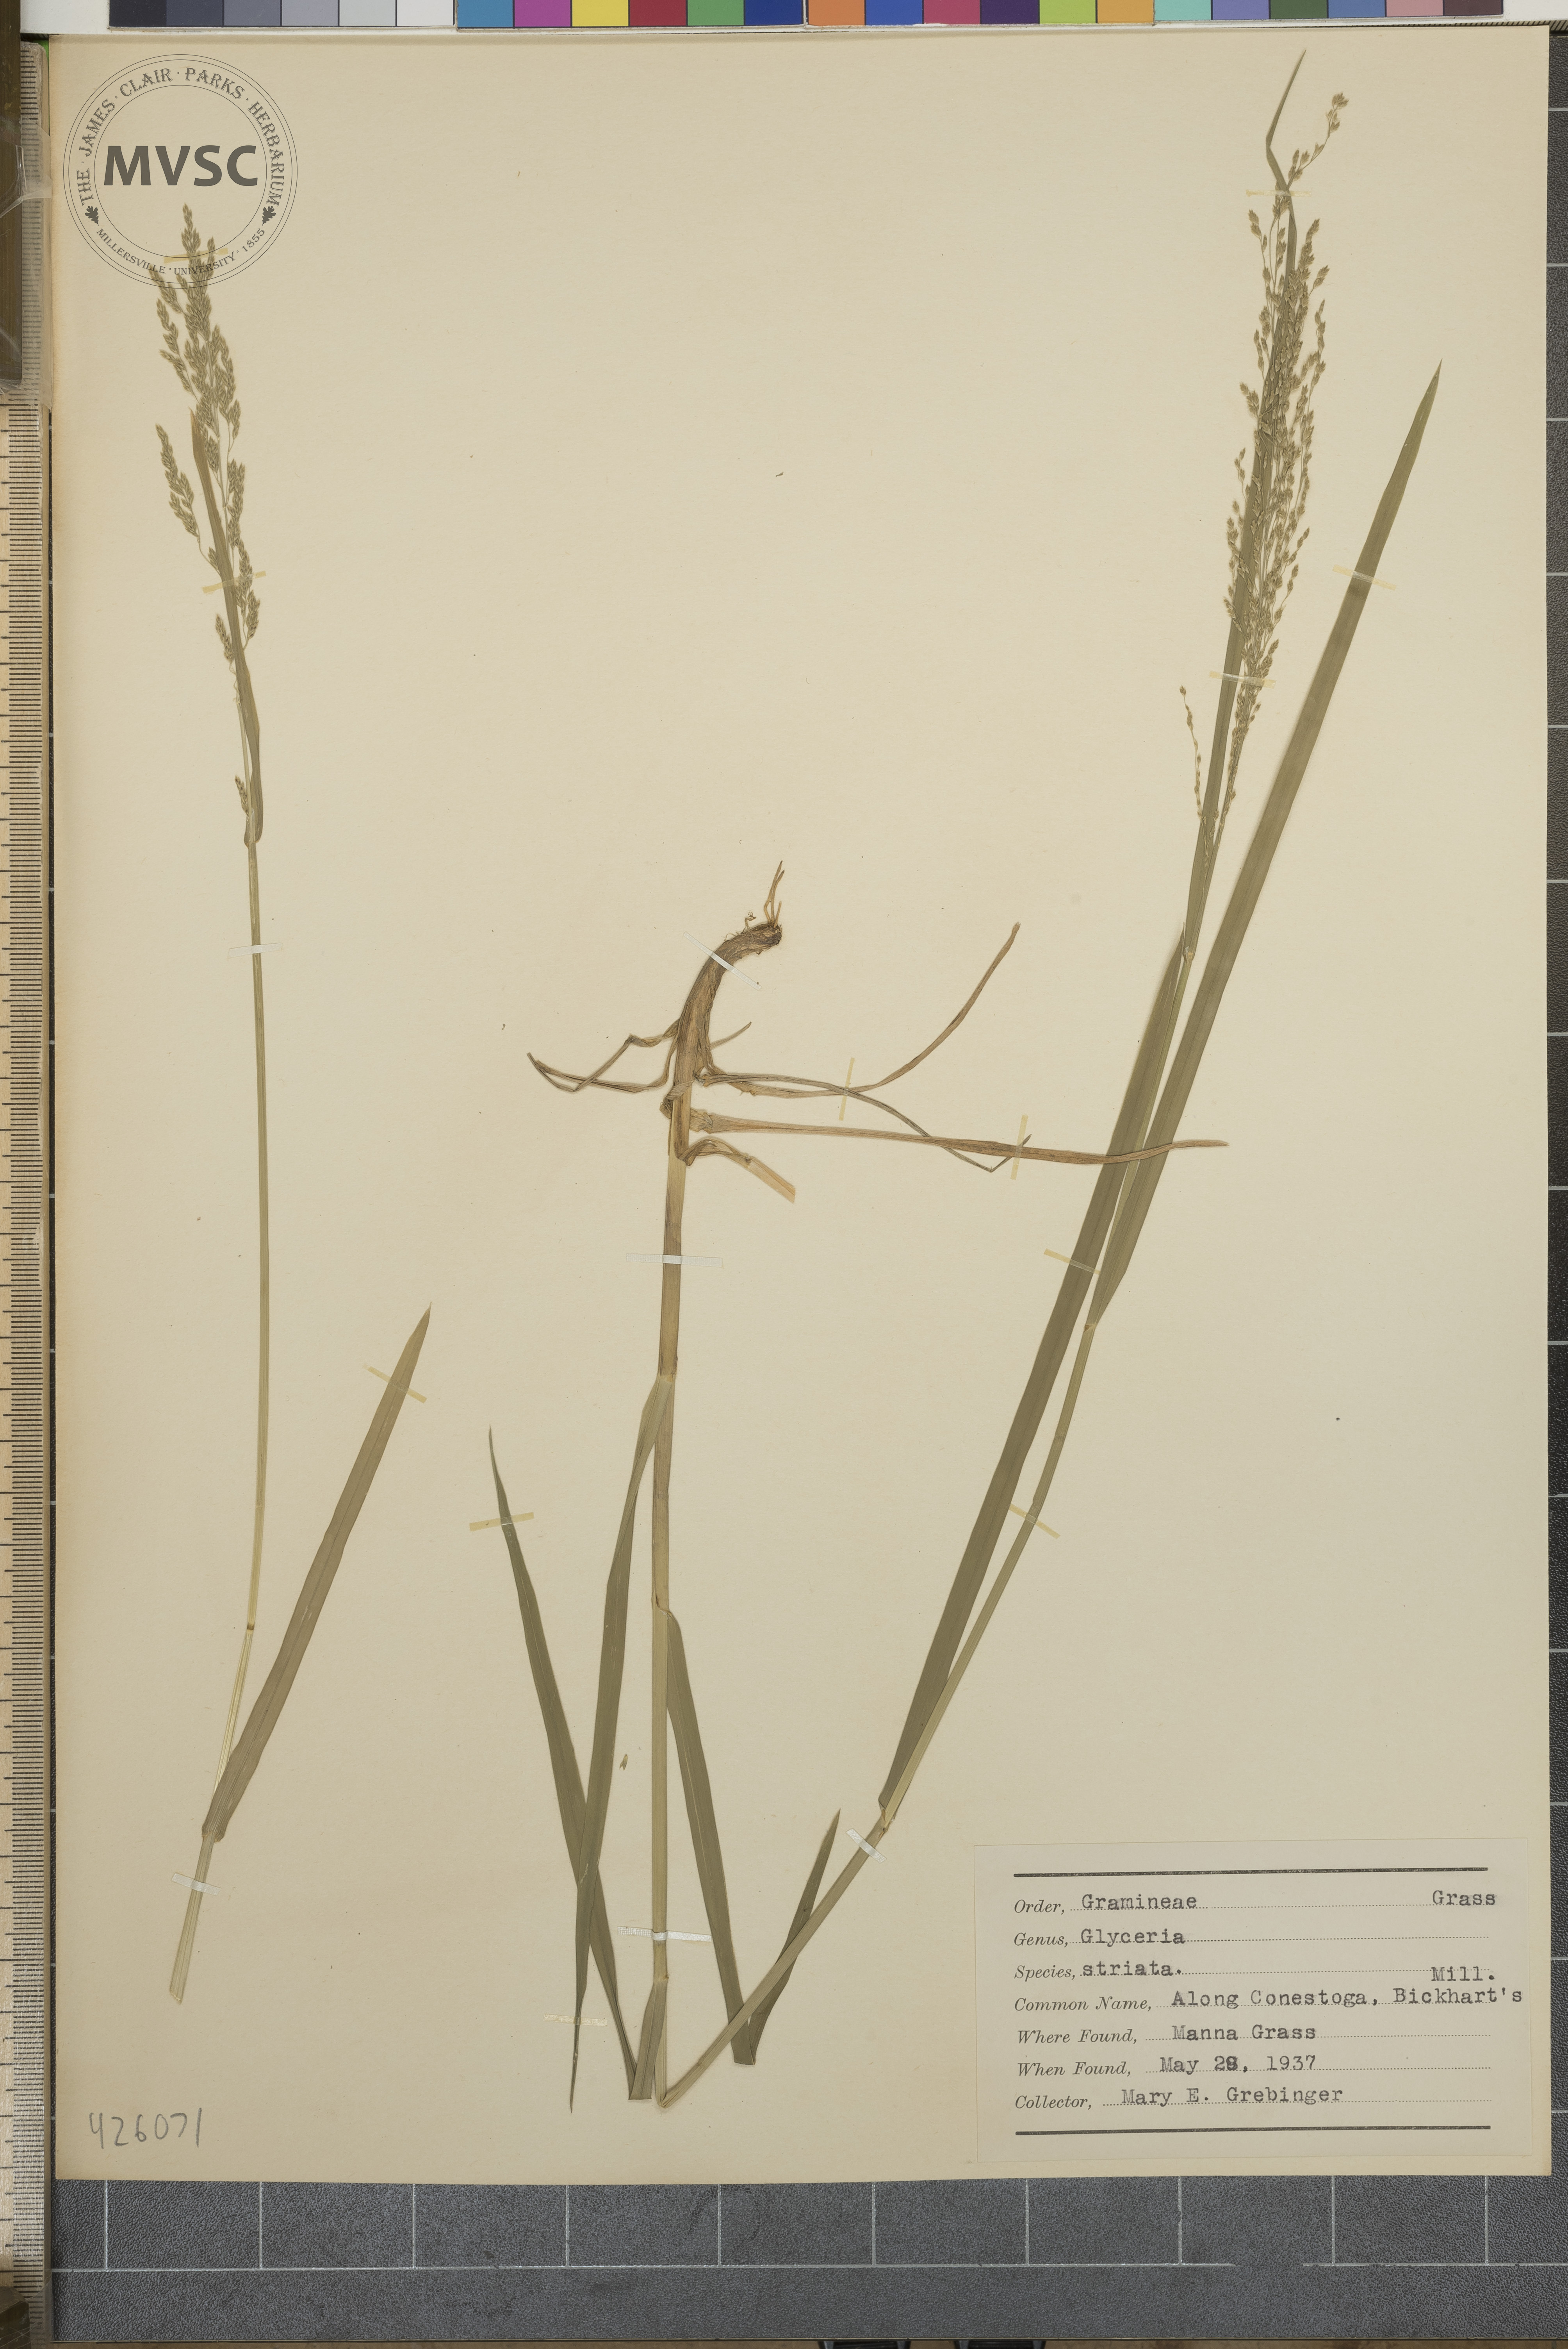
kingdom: Plantae
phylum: Tracheophyta
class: Liliopsida
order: Poales
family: Poaceae
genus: Glyceria
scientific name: Glyceria striata
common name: Manna Grass
